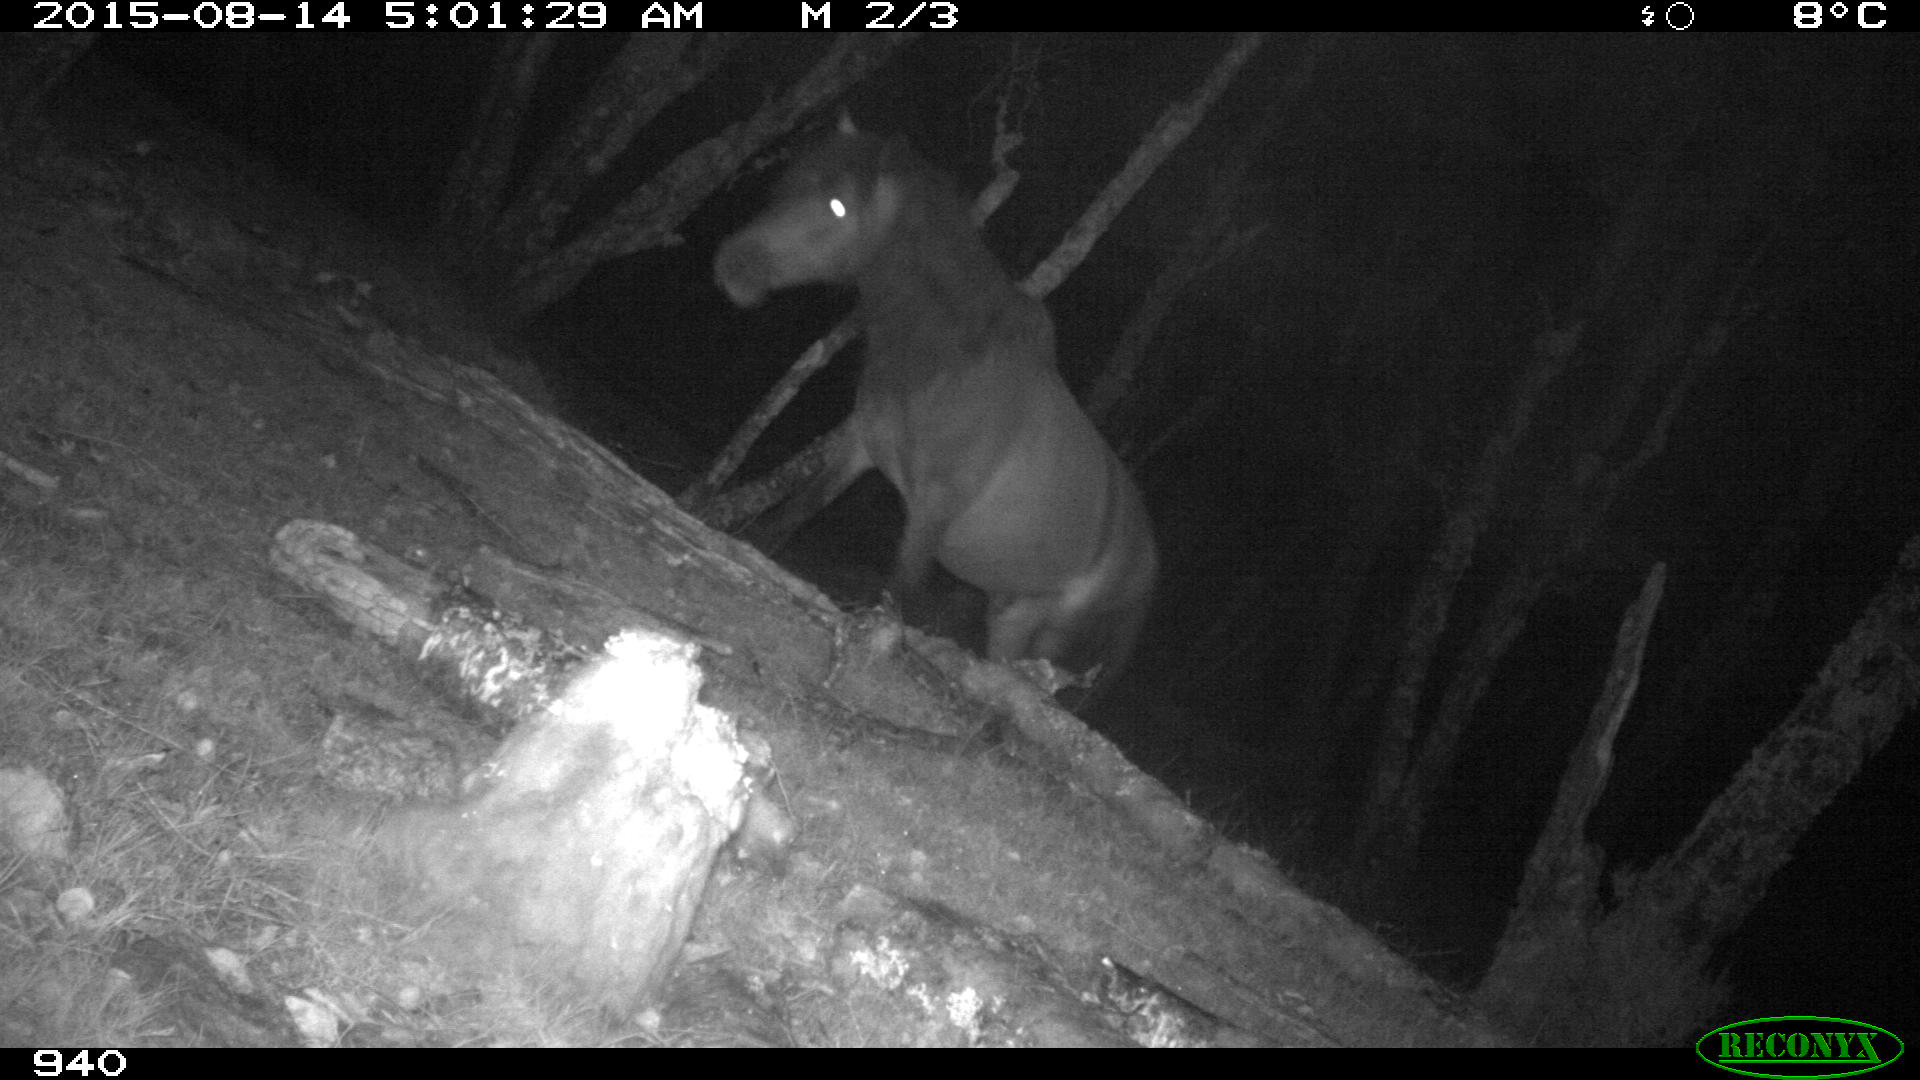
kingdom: Animalia
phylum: Chordata
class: Mammalia
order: Perissodactyla
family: Equidae
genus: Equus
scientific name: Equus caballus
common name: Horse
